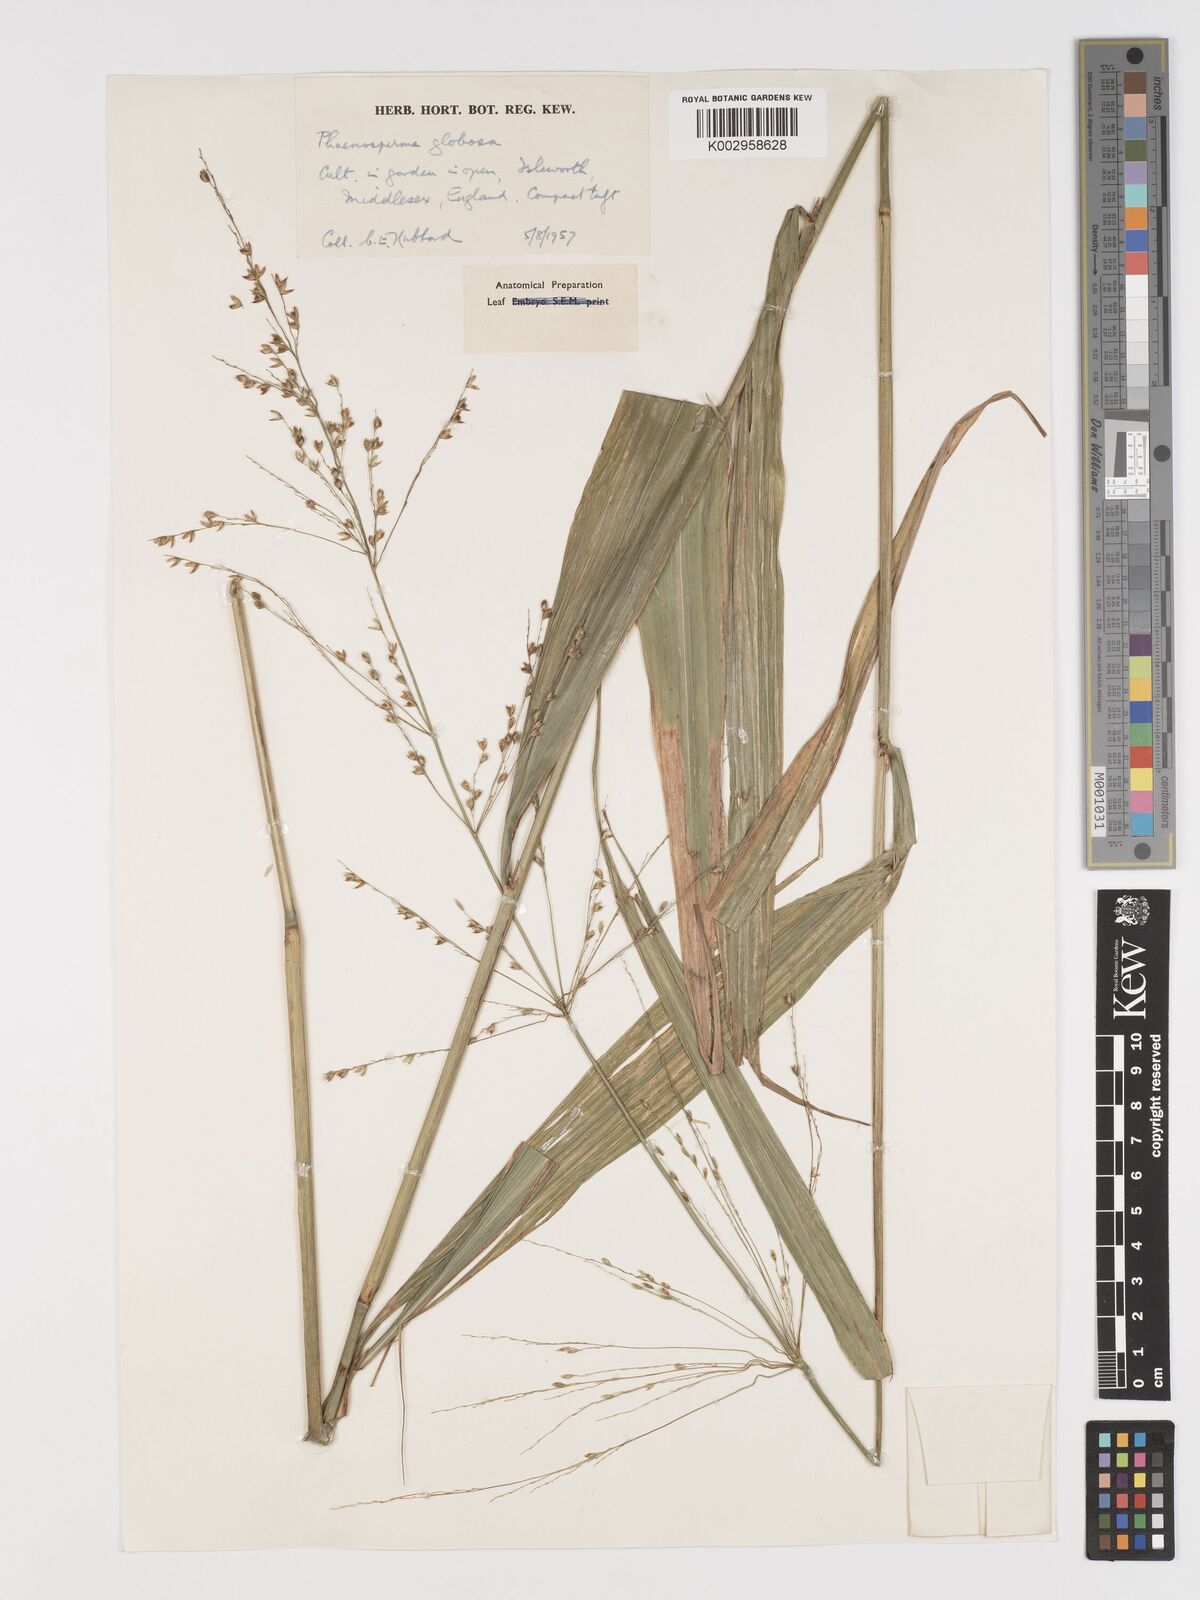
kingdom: Plantae
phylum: Tracheophyta
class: Liliopsida
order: Poales
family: Poaceae
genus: Phaenosperma
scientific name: Phaenosperma globosum
